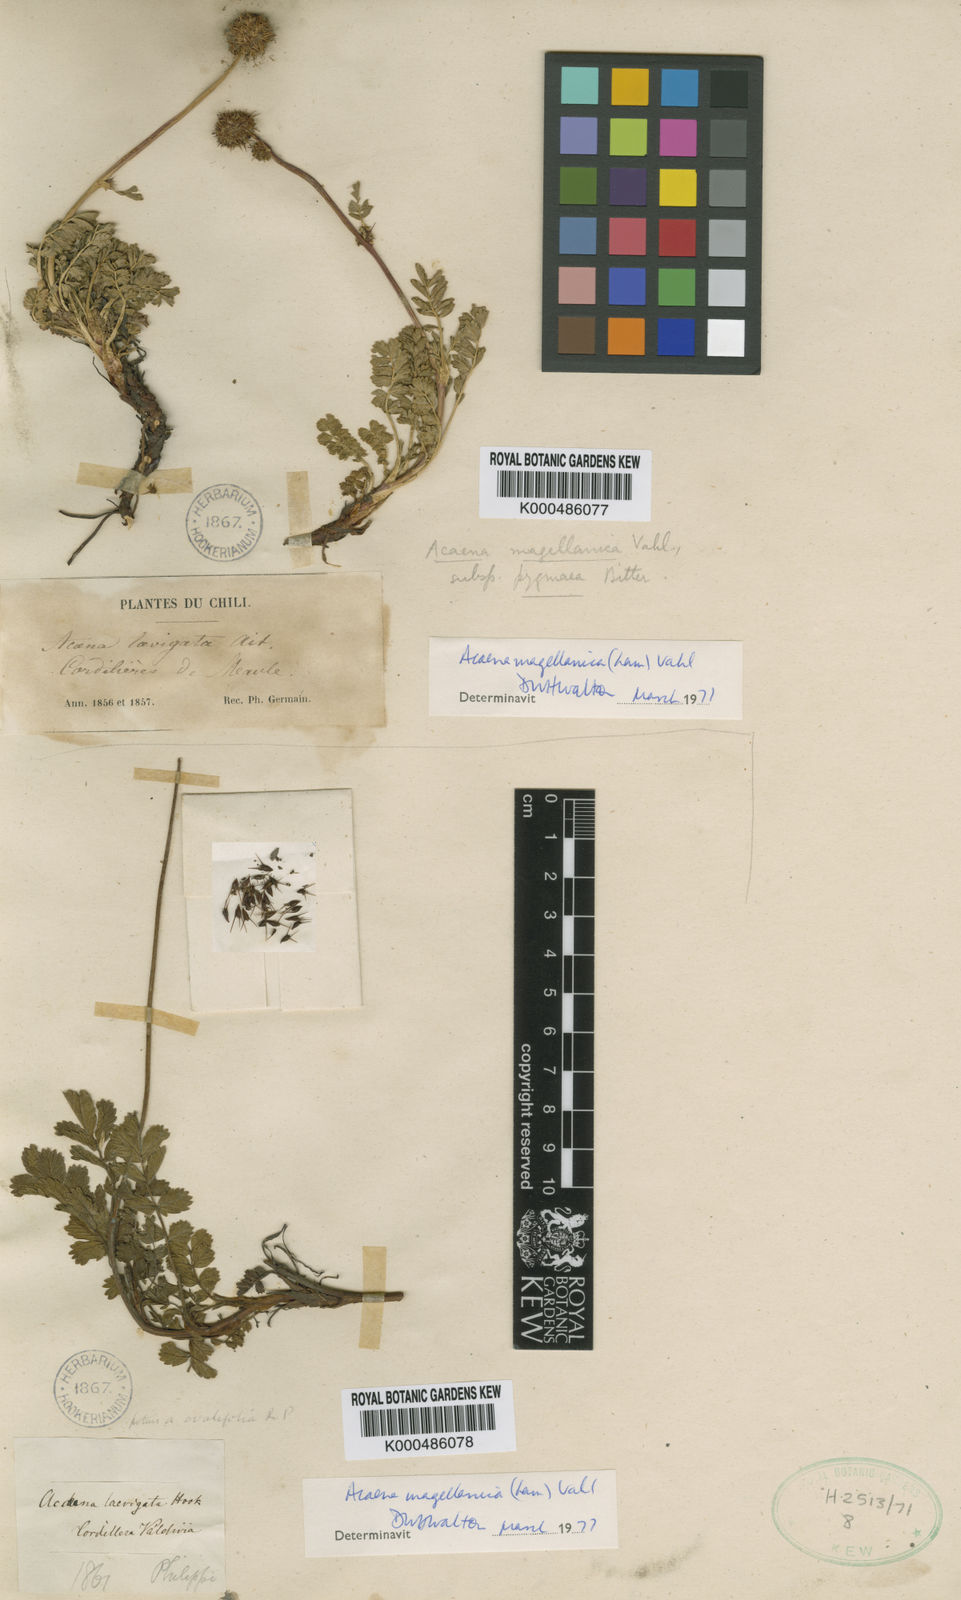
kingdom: Plantae
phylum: Tracheophyta
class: Magnoliopsida
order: Rosales
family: Rosaceae
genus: Acaena
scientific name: Acaena magellanica
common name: New zealand burr
